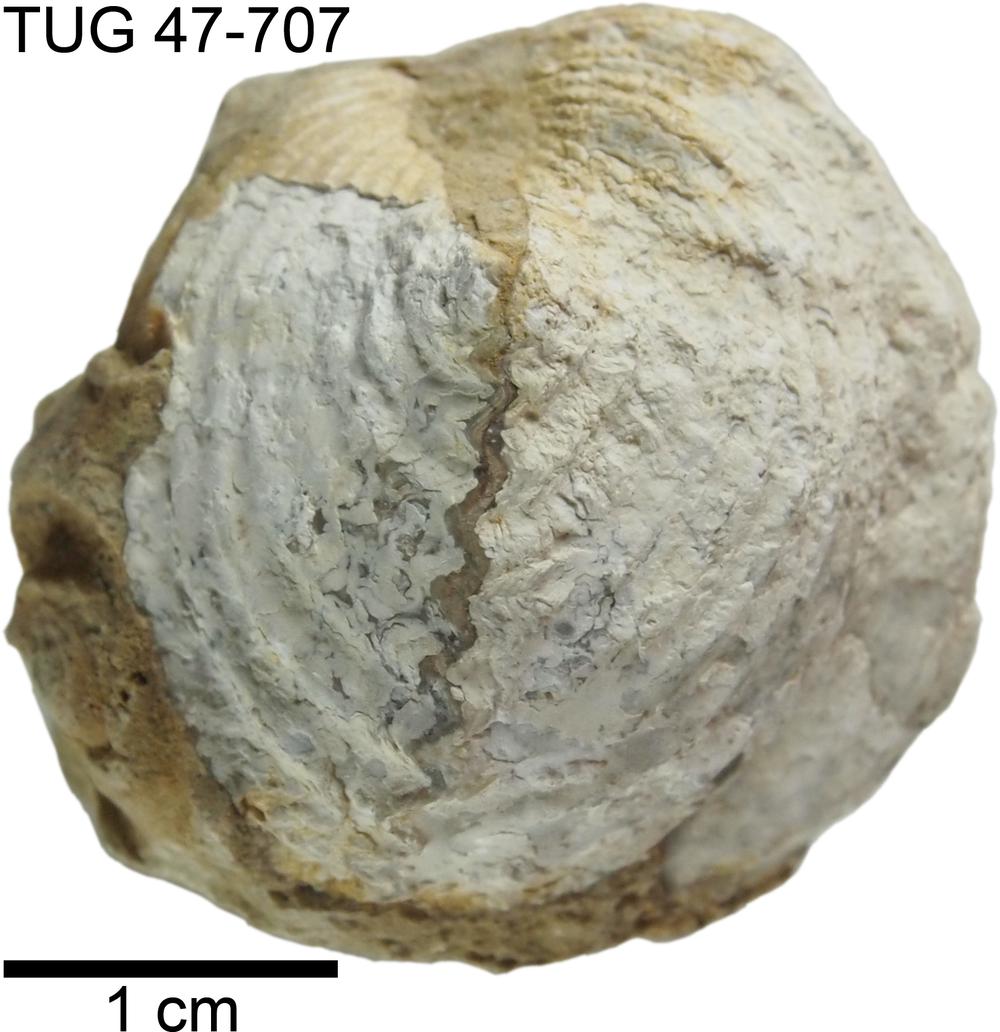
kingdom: Animalia
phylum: Brachiopoda
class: Rhynchonellata
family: Platystrophiidae
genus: Neoplatystrophia
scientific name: Neoplatystrophia Platystrophia lynx
